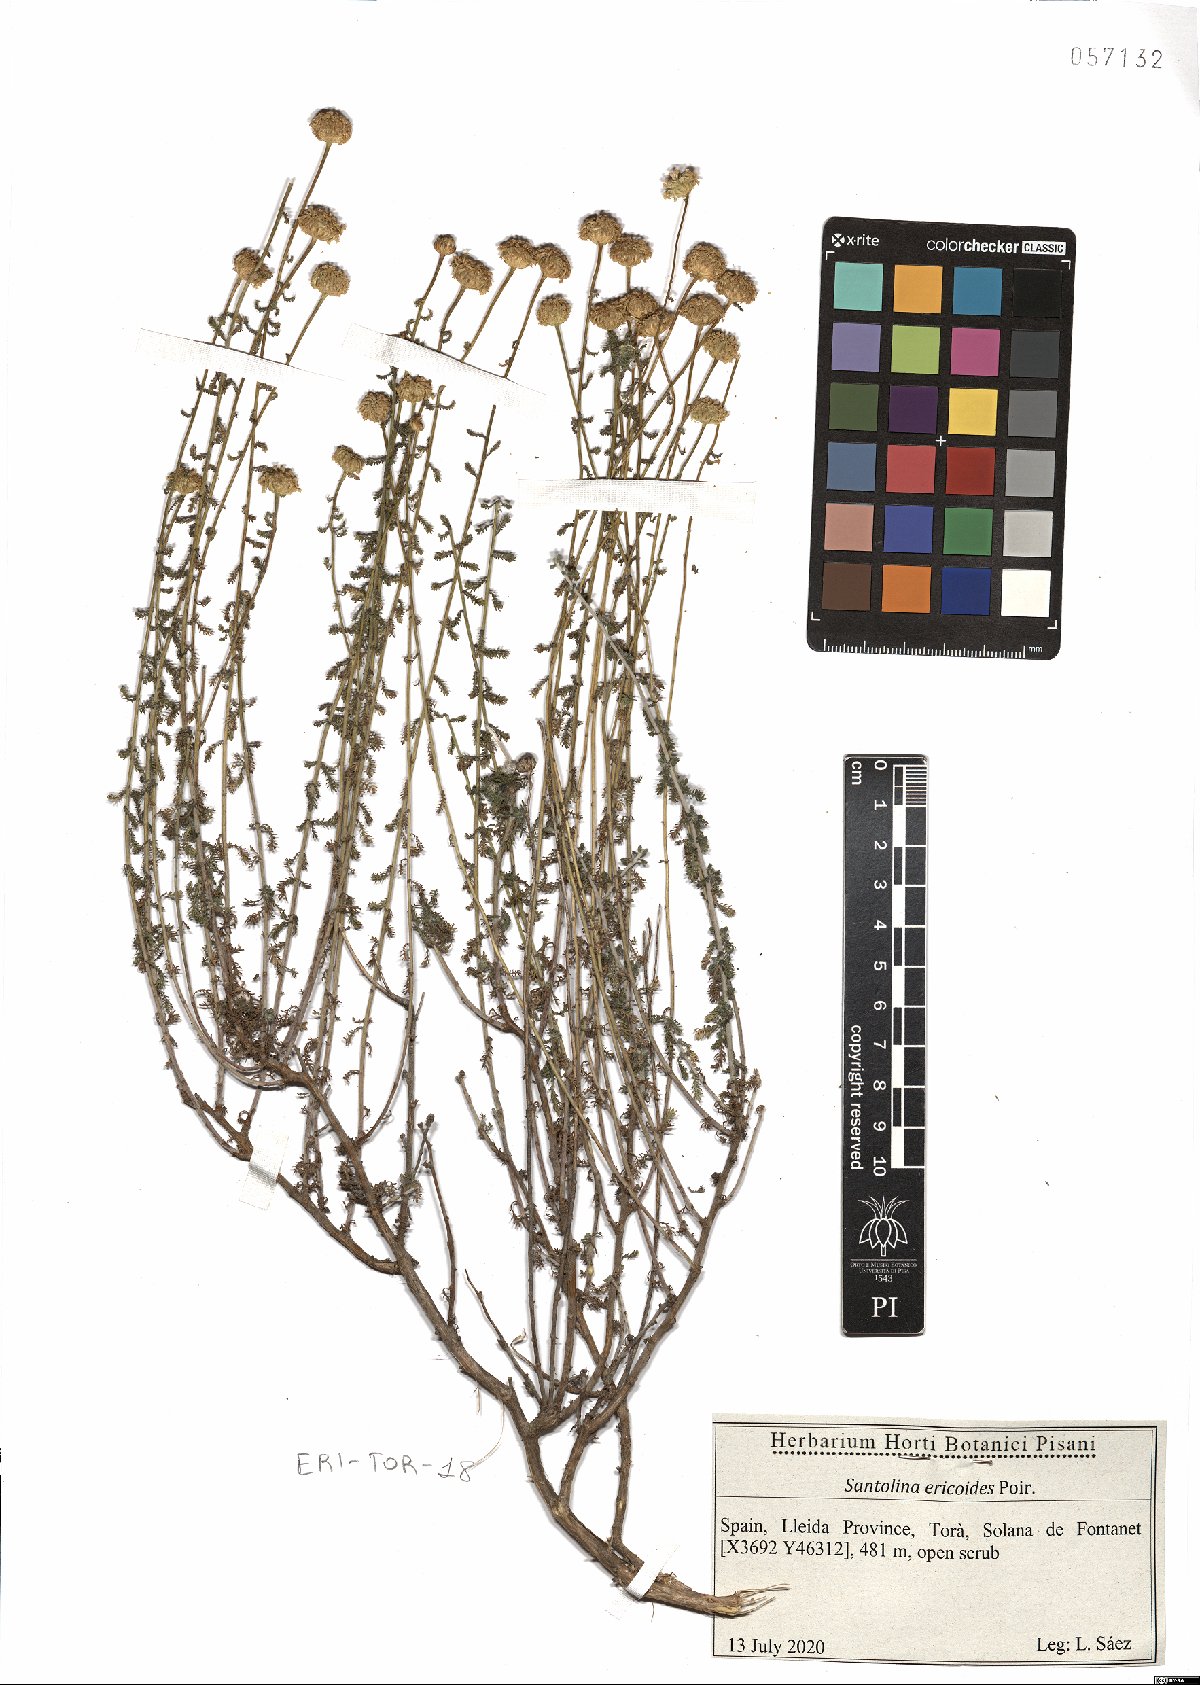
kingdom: Plantae
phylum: Tracheophyta
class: Magnoliopsida
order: Asterales
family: Asteraceae
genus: Santolina
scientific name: Santolina ericoides
